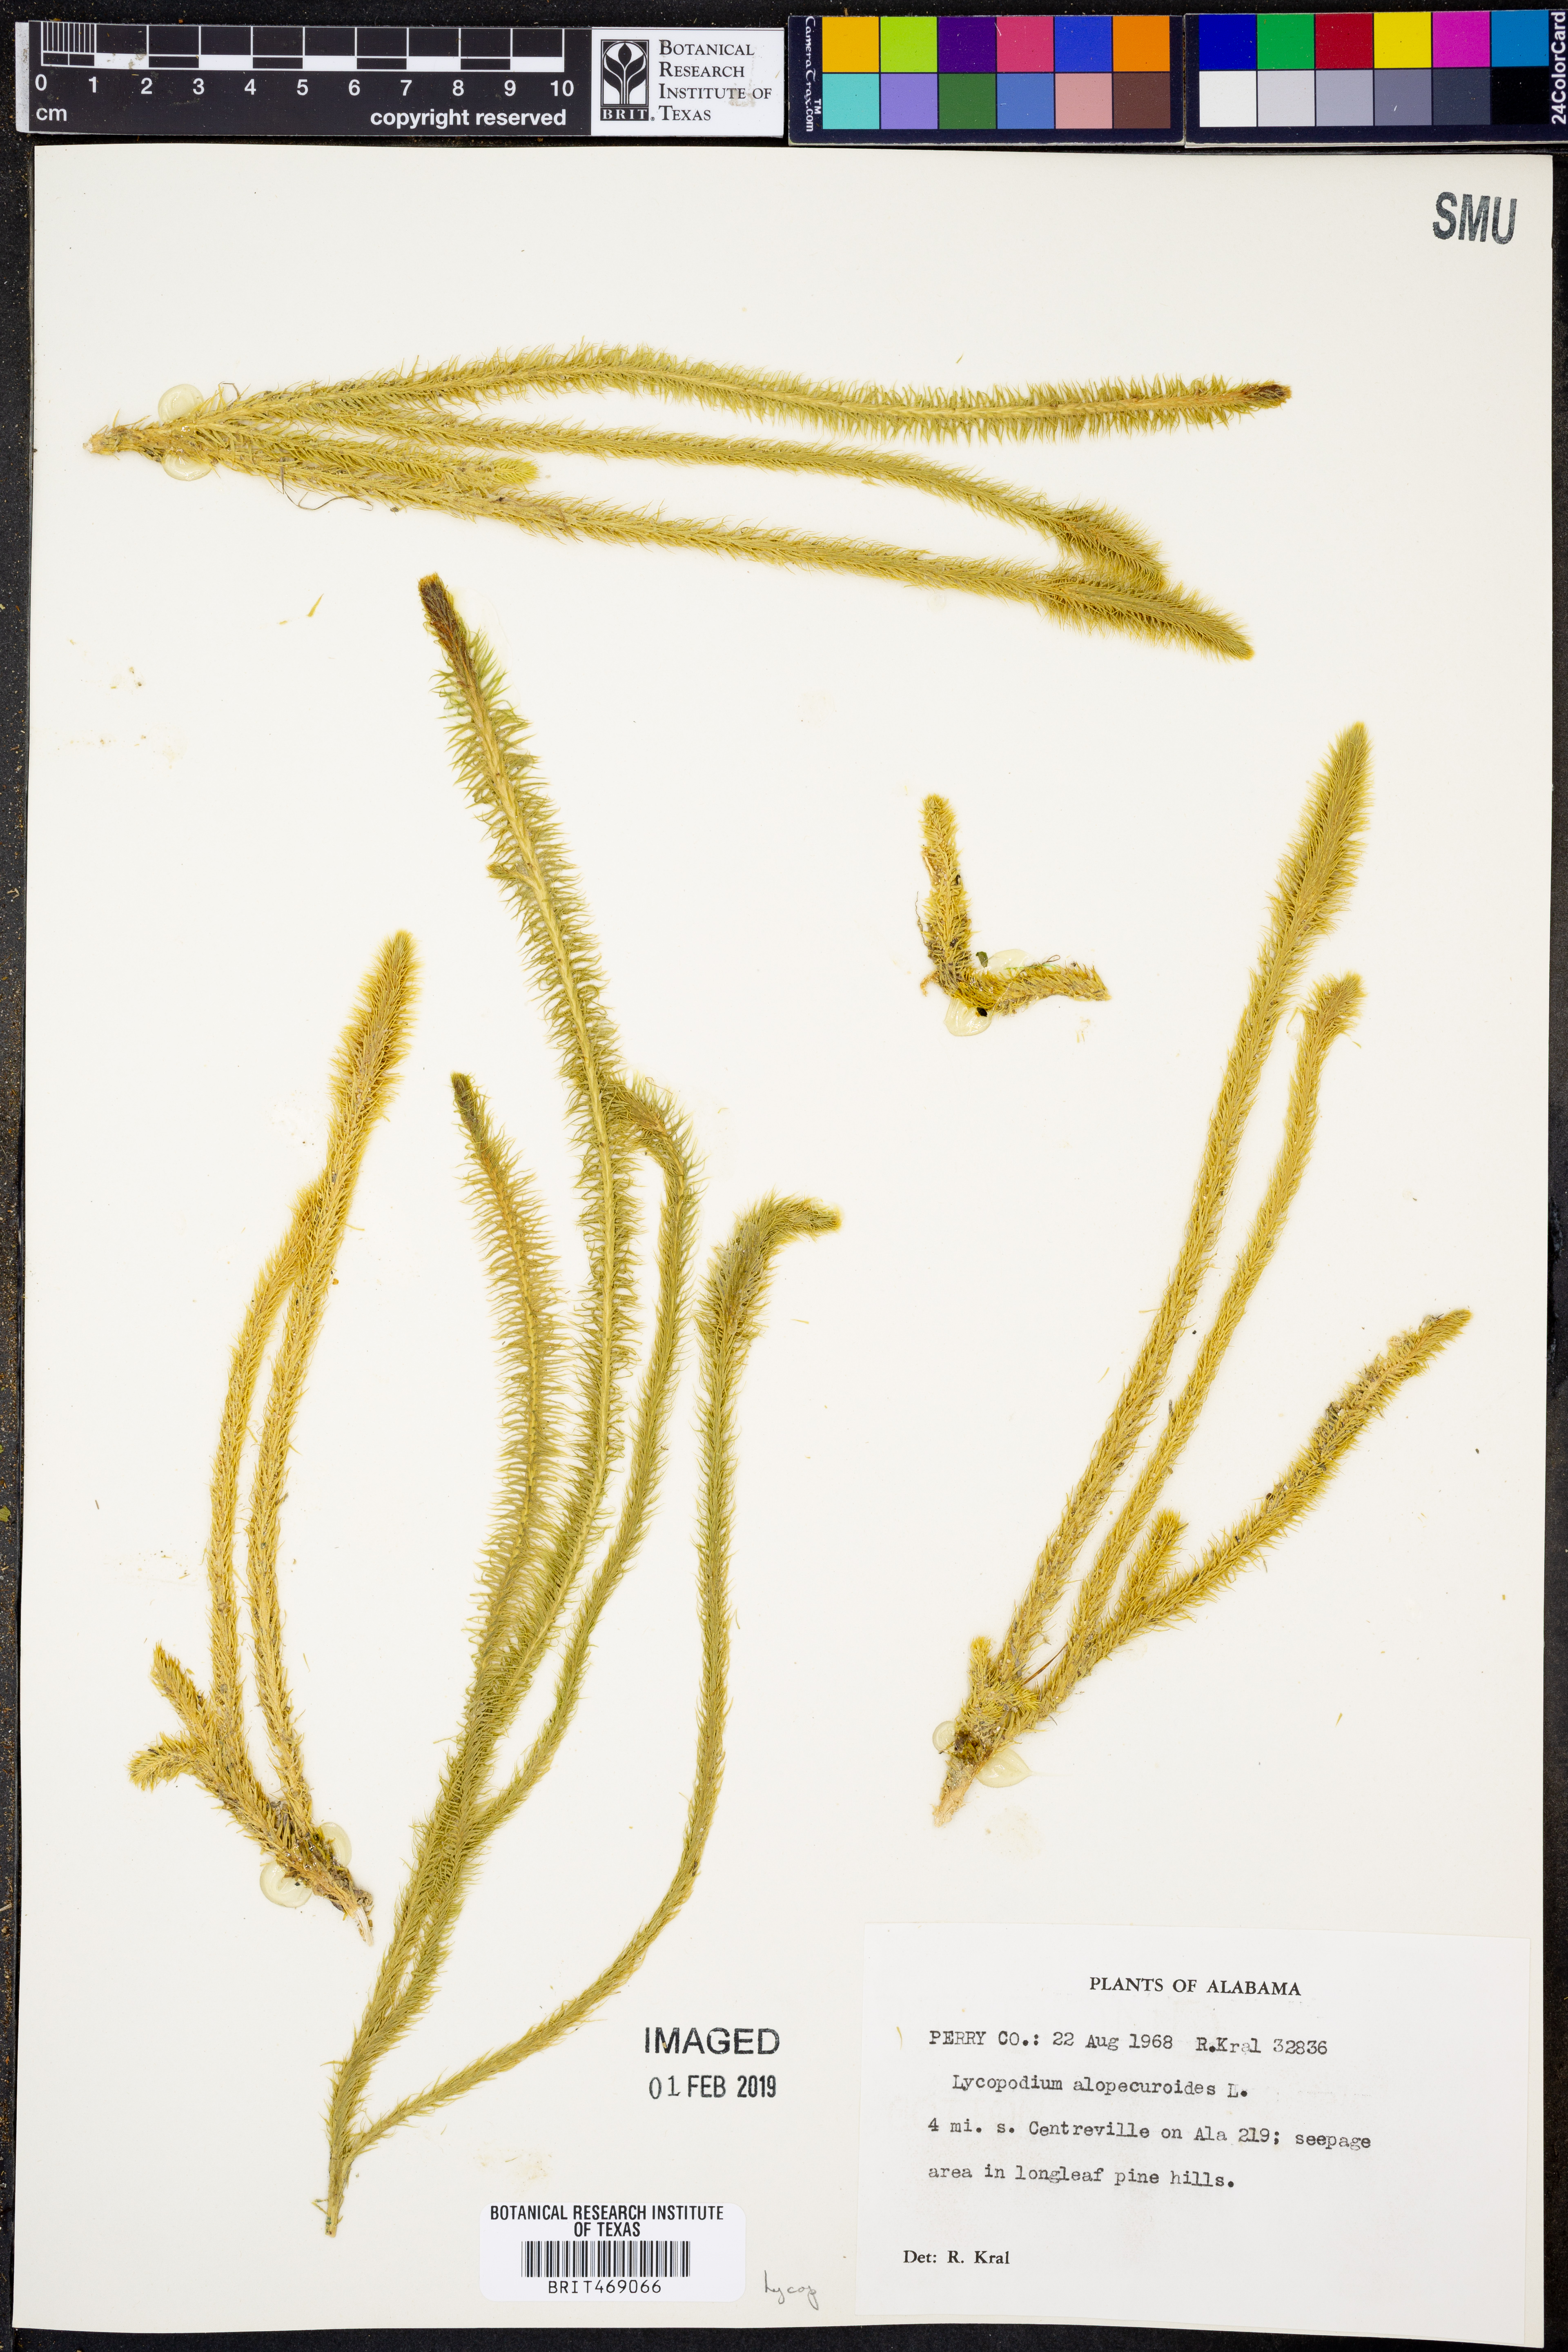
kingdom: Plantae
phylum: Tracheophyta
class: Lycopodiopsida
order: Lycopodiales
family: Lycopodiaceae
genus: Lycopodiella
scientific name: Lycopodiella alopecuroides
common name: Foxtail clubmoss
